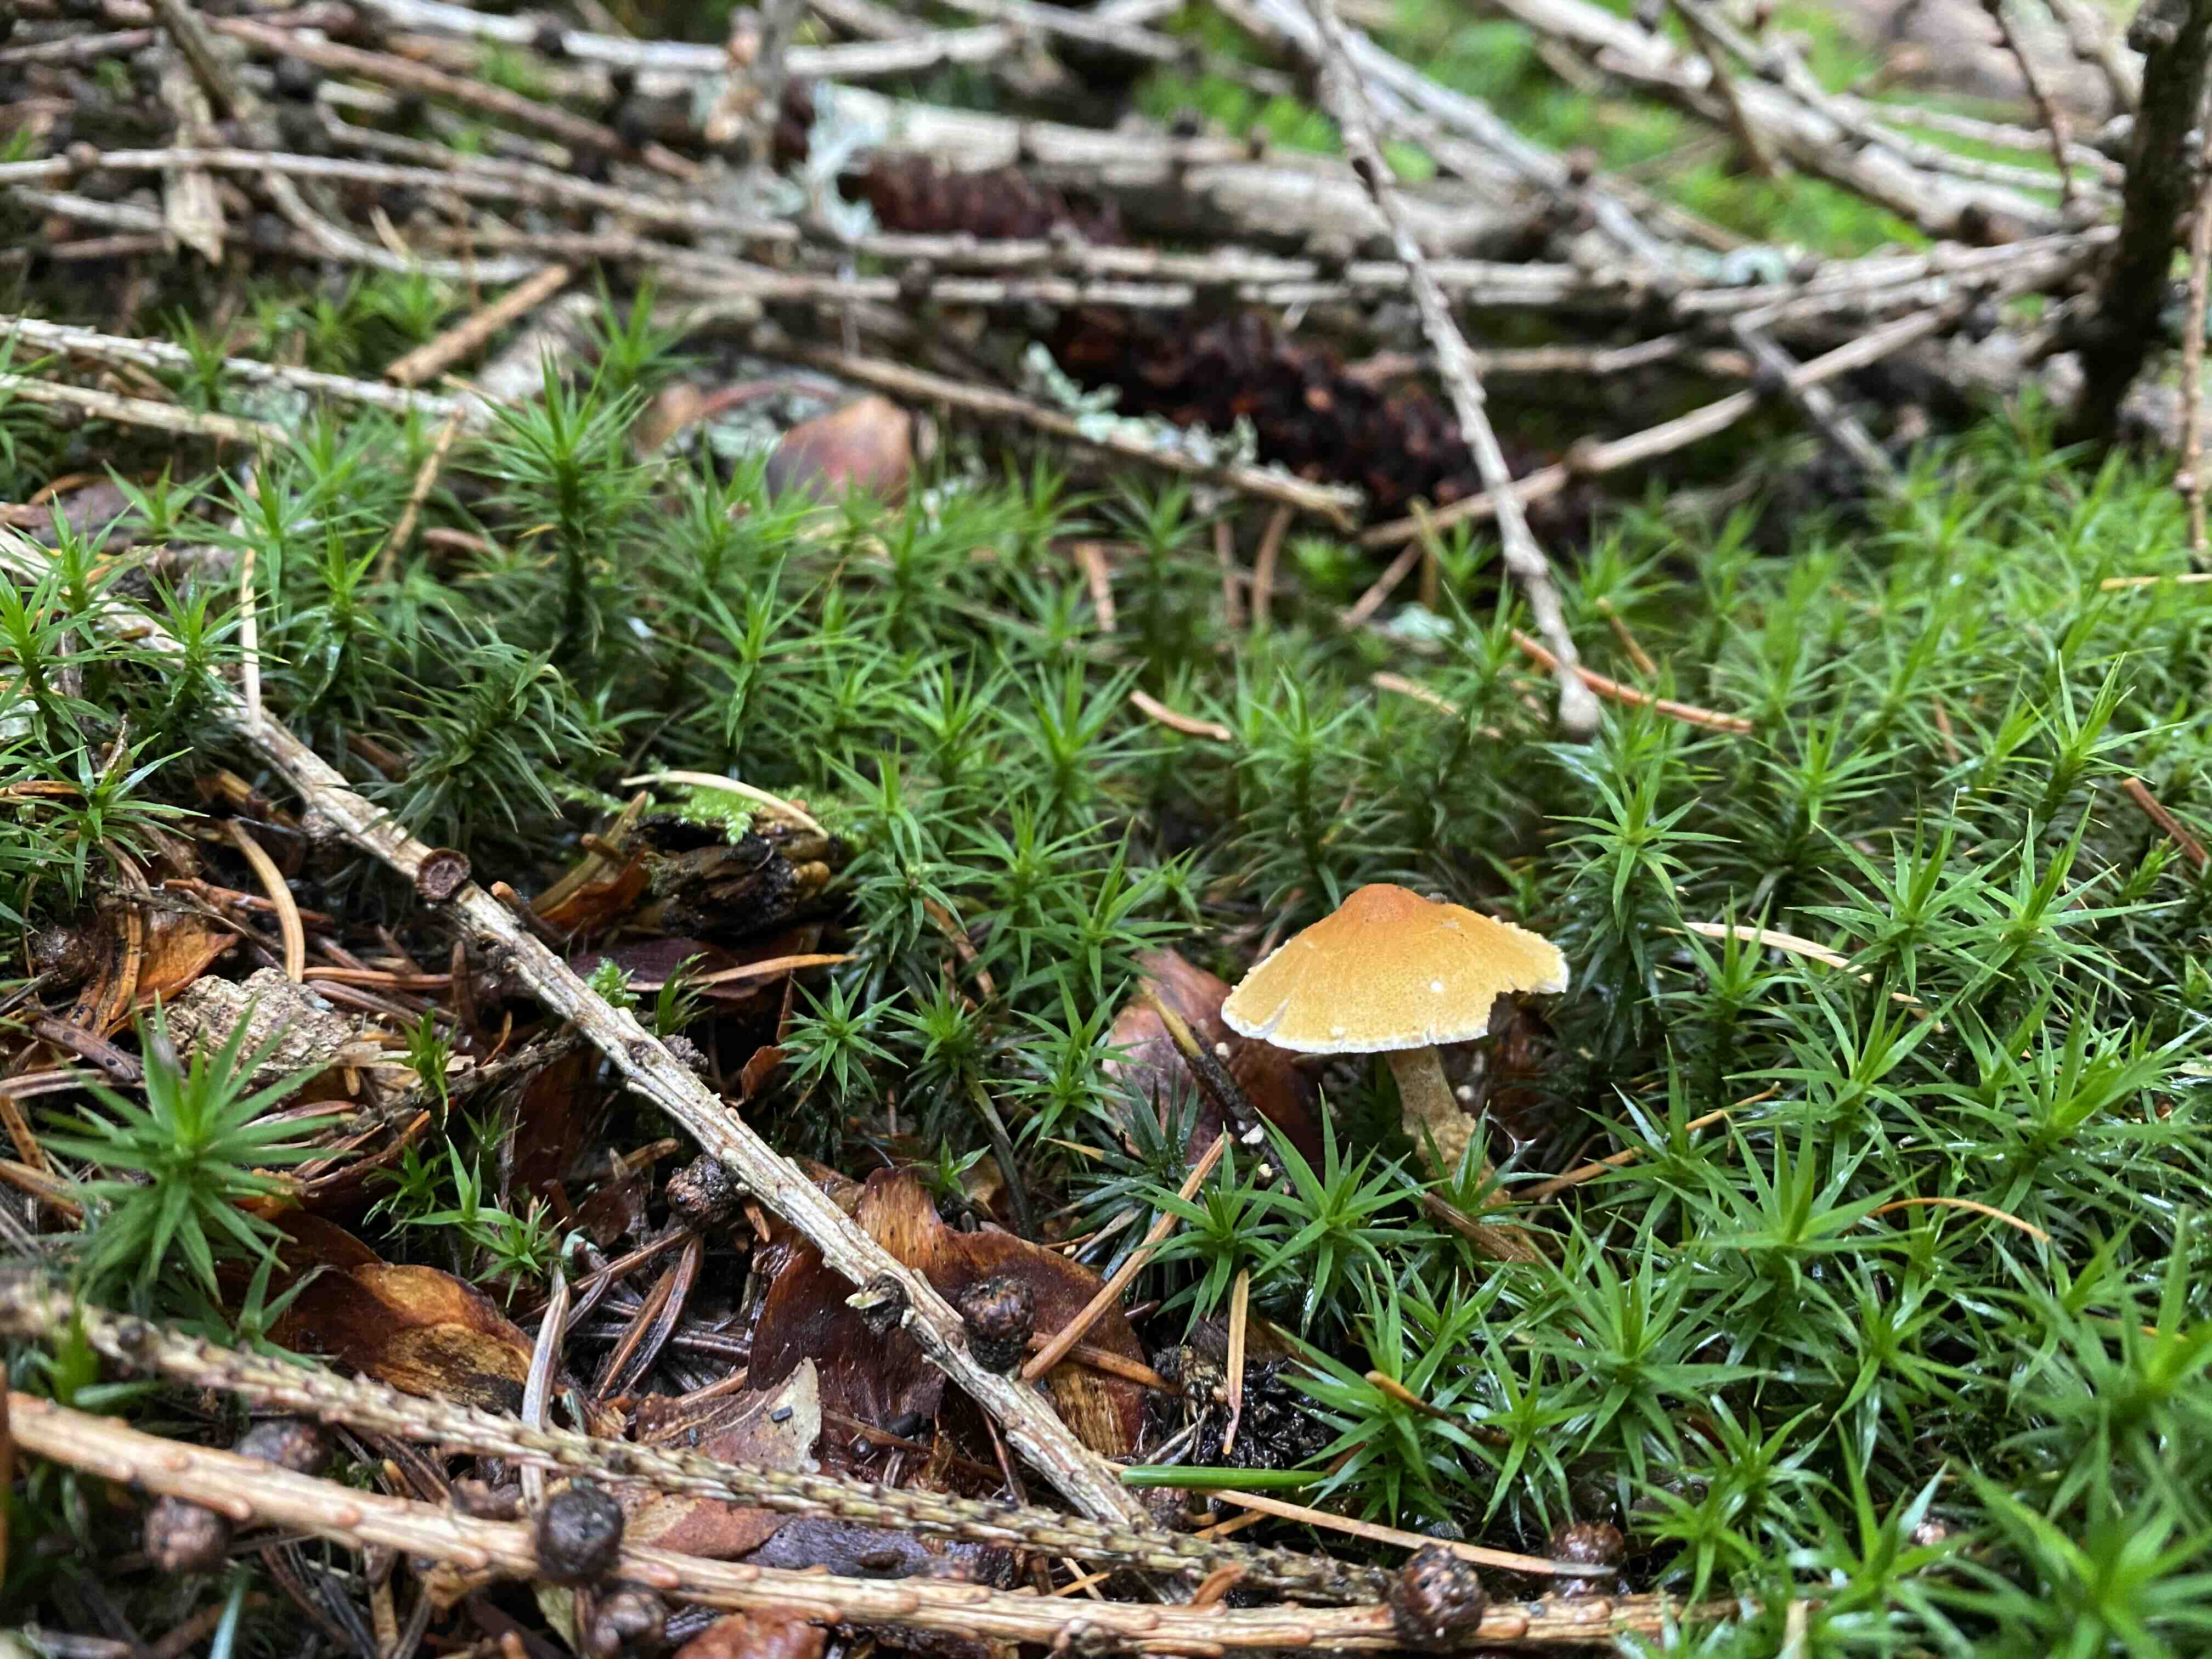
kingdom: Fungi
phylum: Basidiomycota
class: Agaricomycetes
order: Agaricales
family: Tricholomataceae
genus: Cystoderma
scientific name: Cystoderma amianthinum
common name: okkergul grynhat
